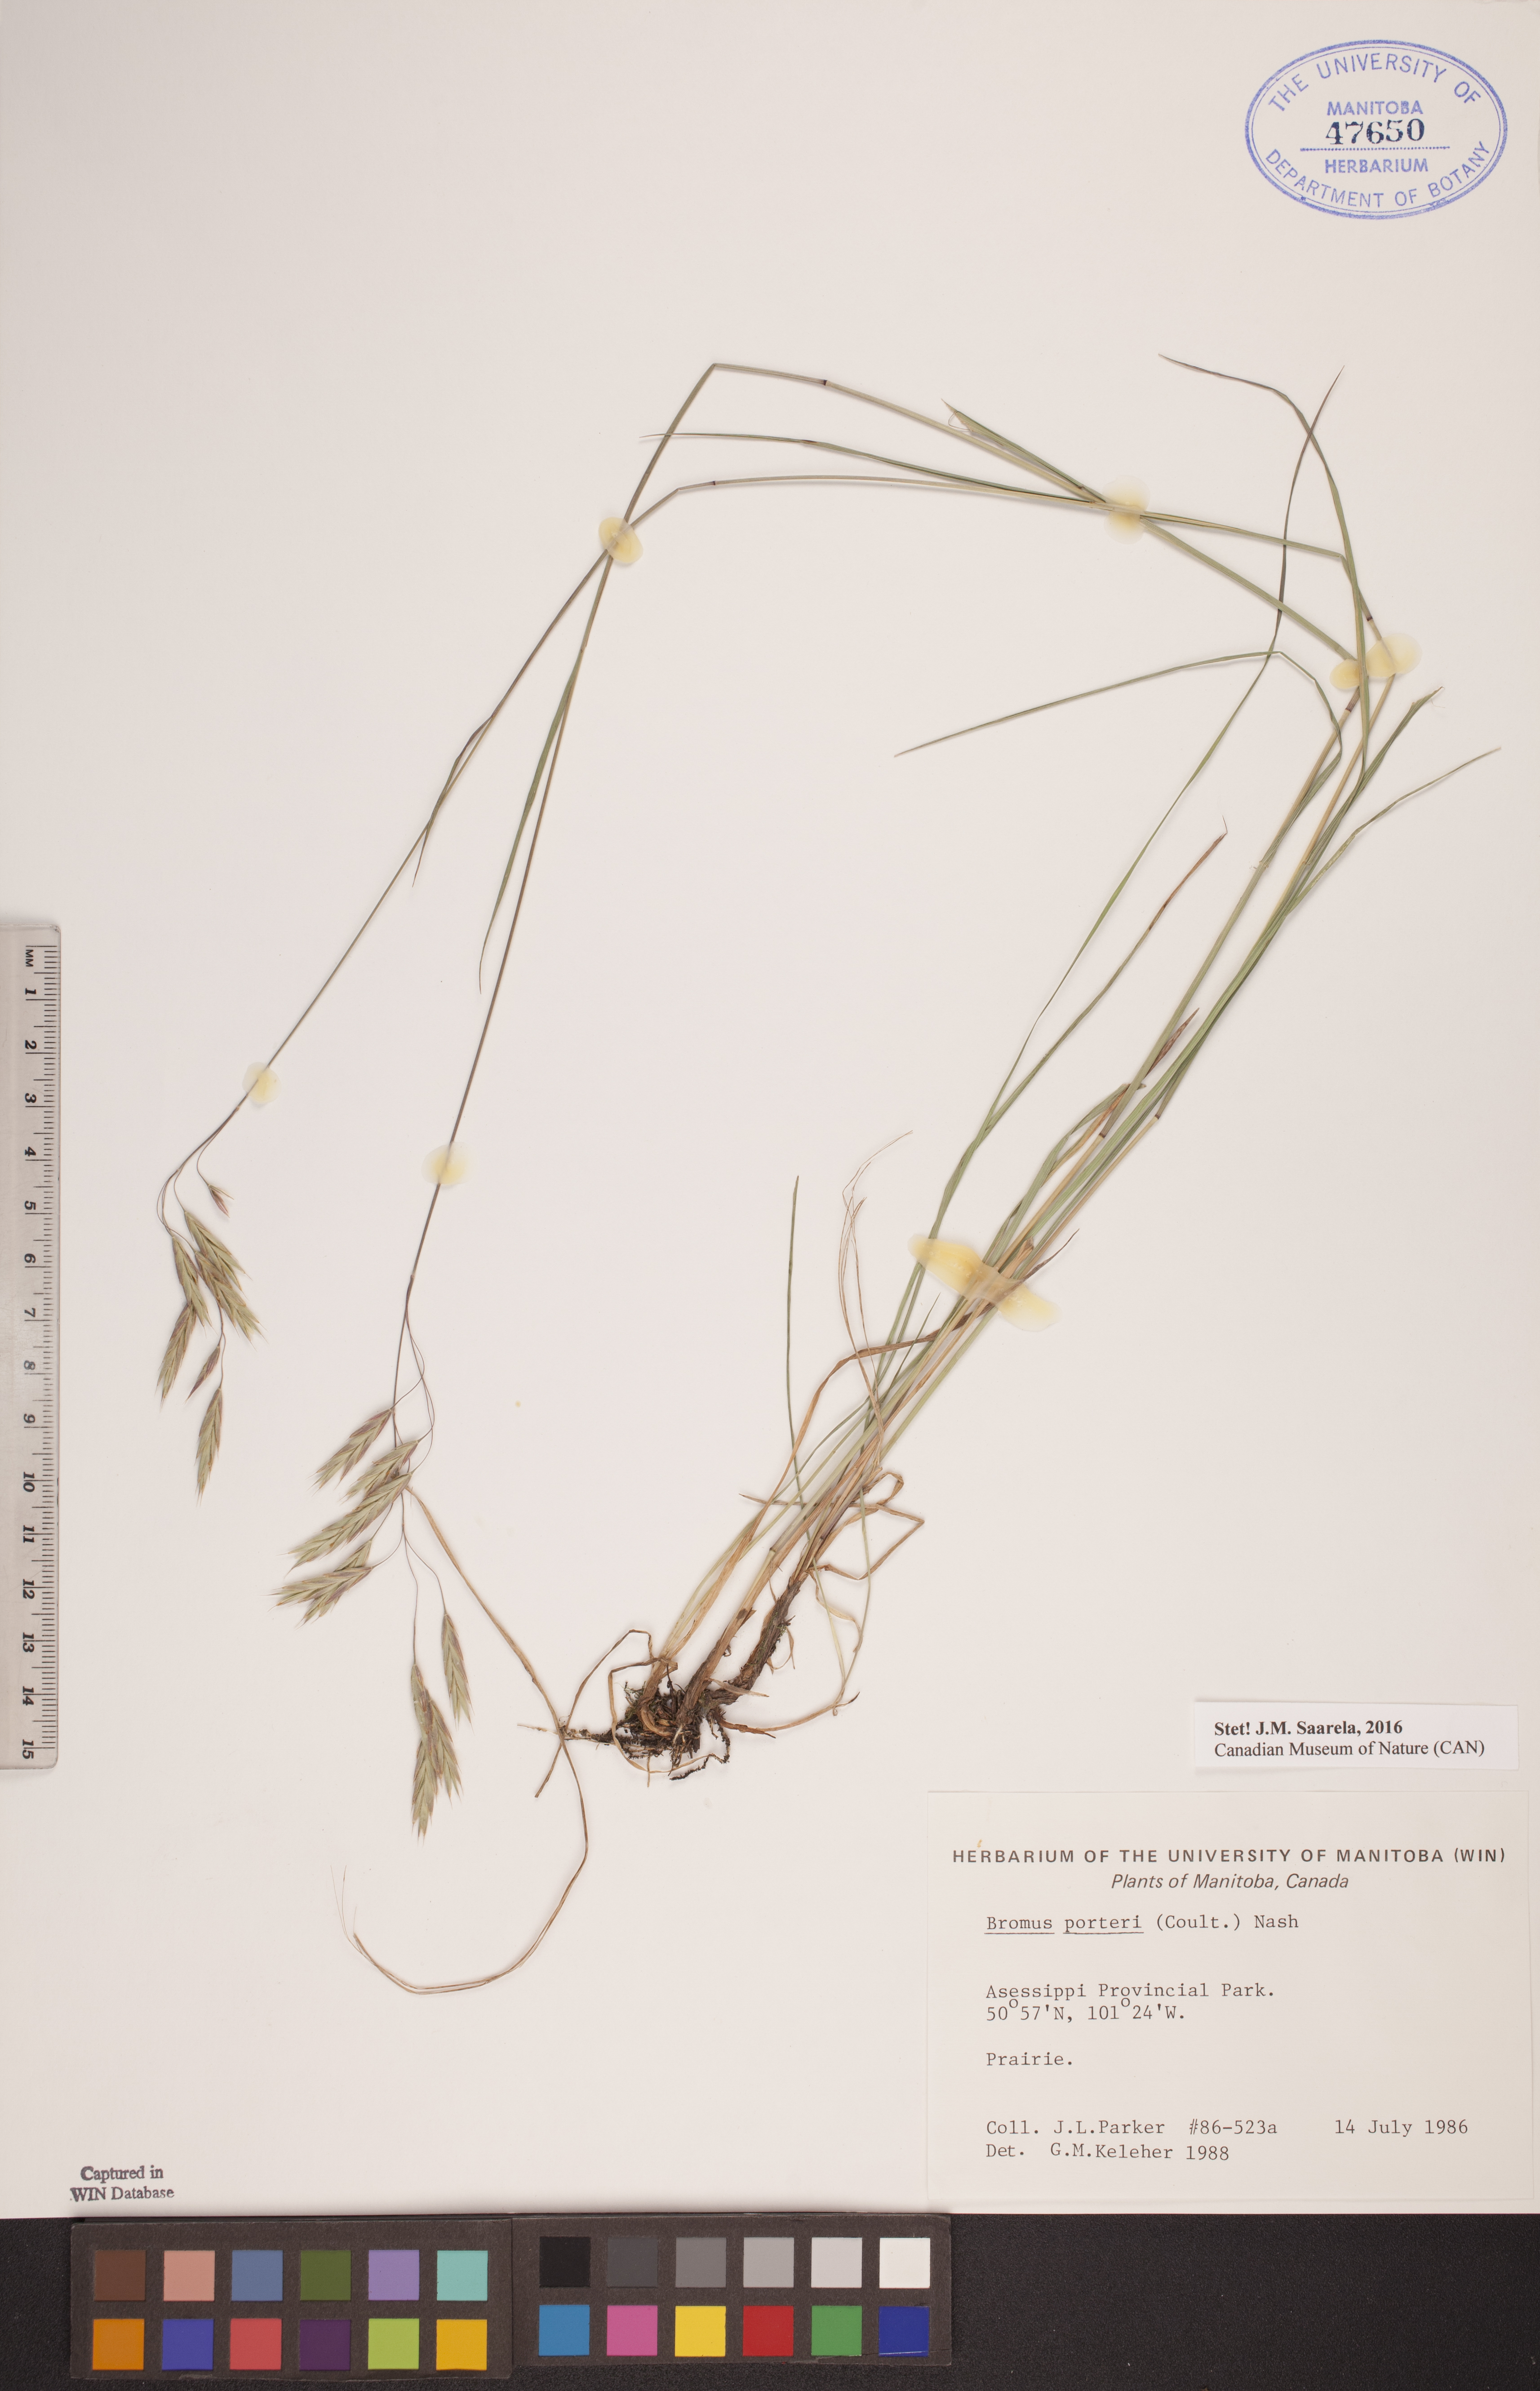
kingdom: Plantae
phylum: Tracheophyta
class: Liliopsida
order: Poales
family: Poaceae
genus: Bromus
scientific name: Bromus porteri
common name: Nodding brome
